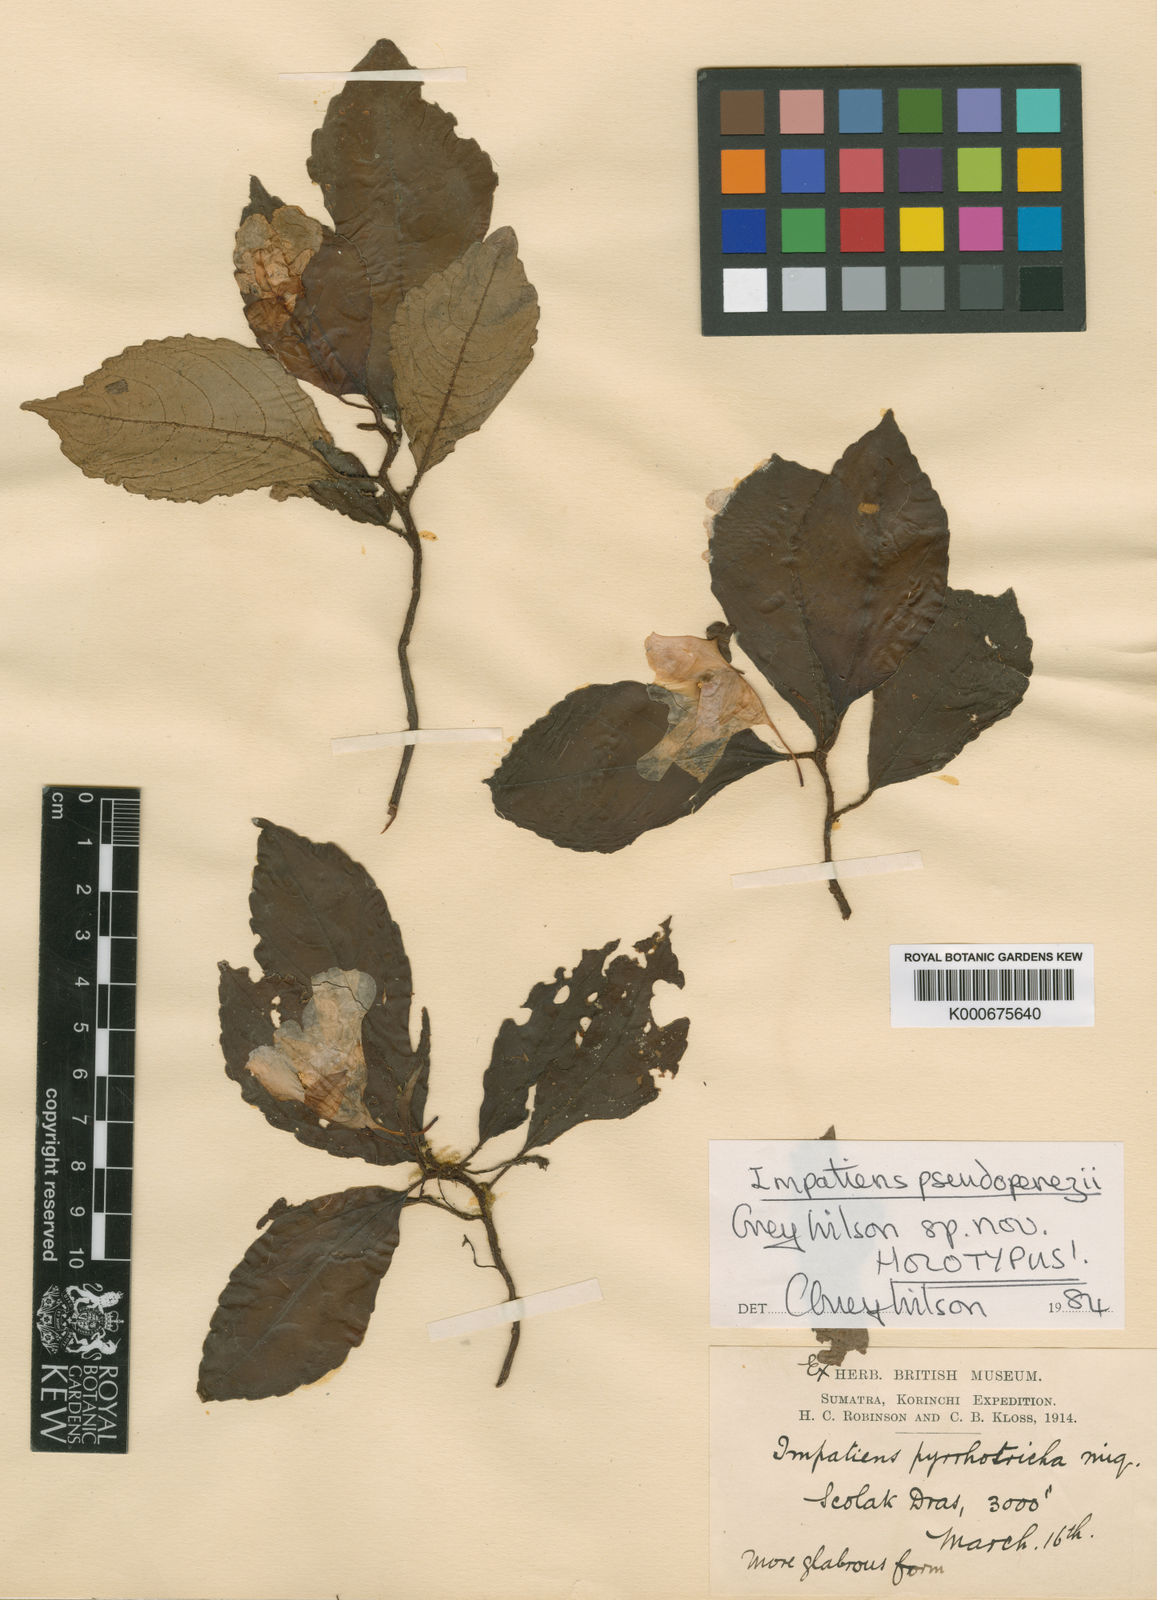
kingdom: Plantae
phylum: Tracheophyta
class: Magnoliopsida
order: Ericales
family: Balsaminaceae
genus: Impatiens
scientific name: Impatiens pseudoperezii
